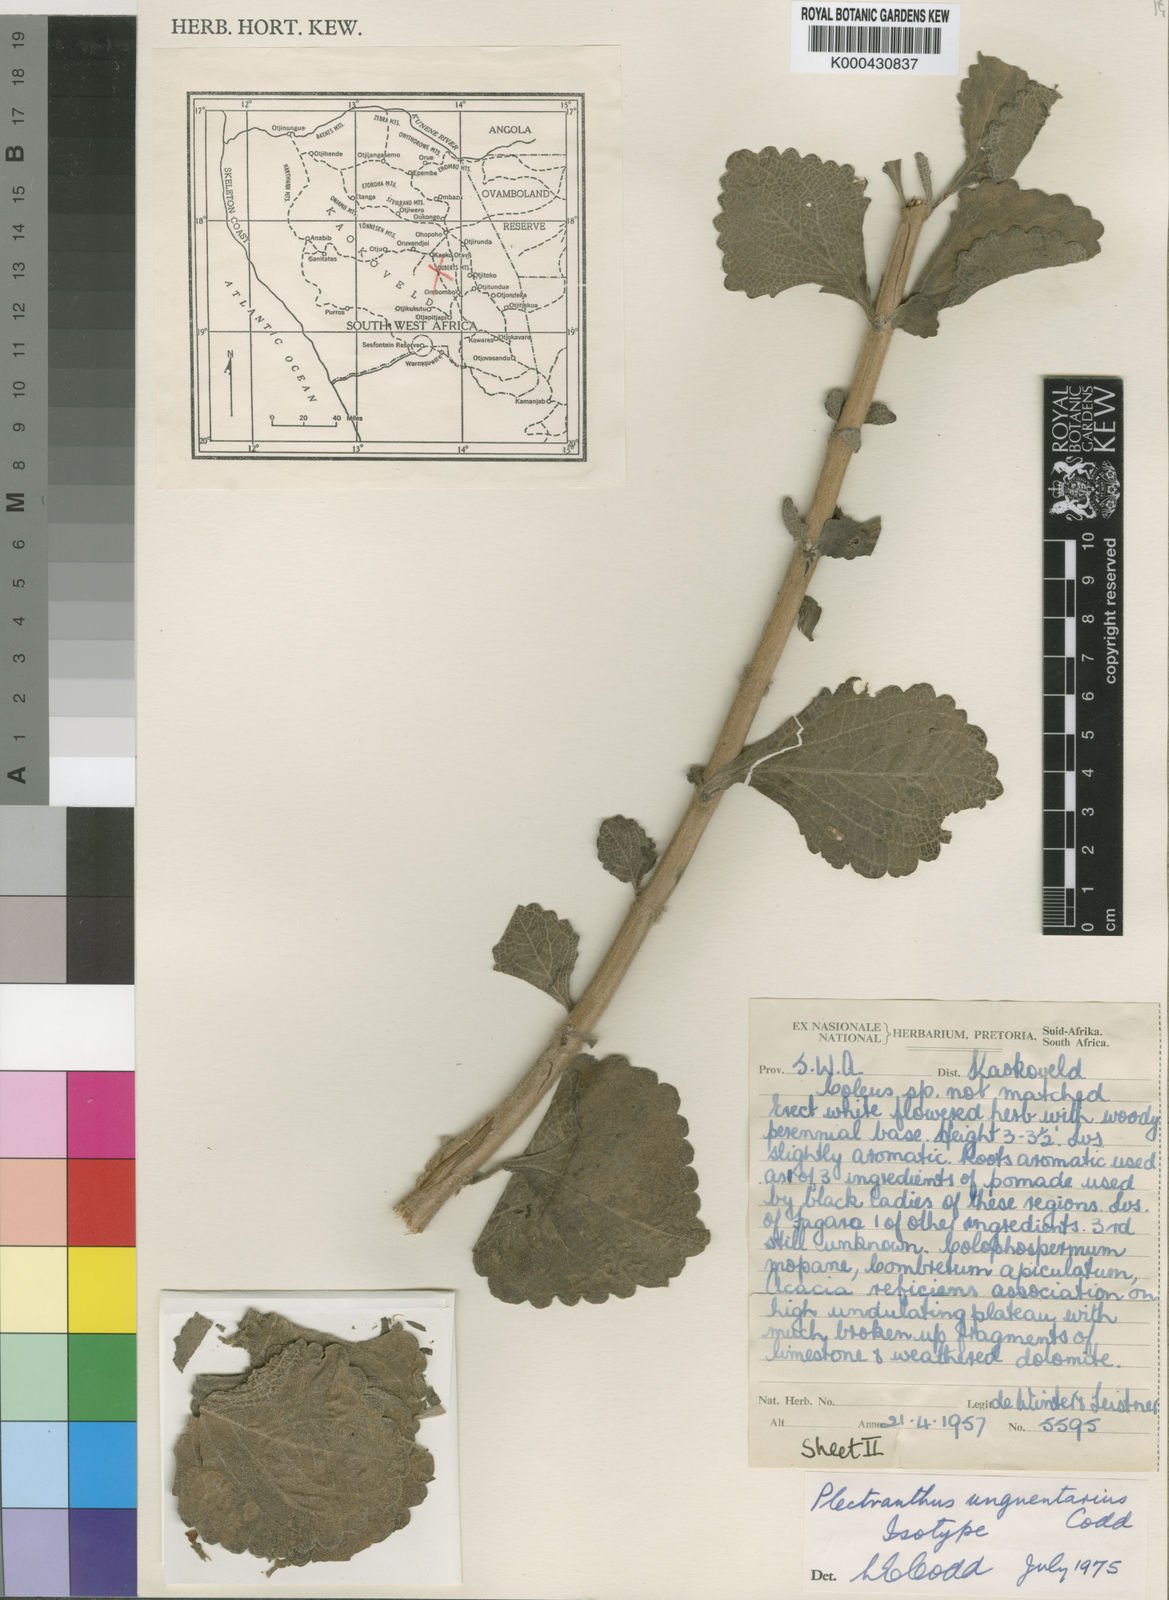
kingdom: Plantae
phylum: Tracheophyta
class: Magnoliopsida
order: Lamiales
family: Lamiaceae
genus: Coleus
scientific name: Coleus unguentarius
